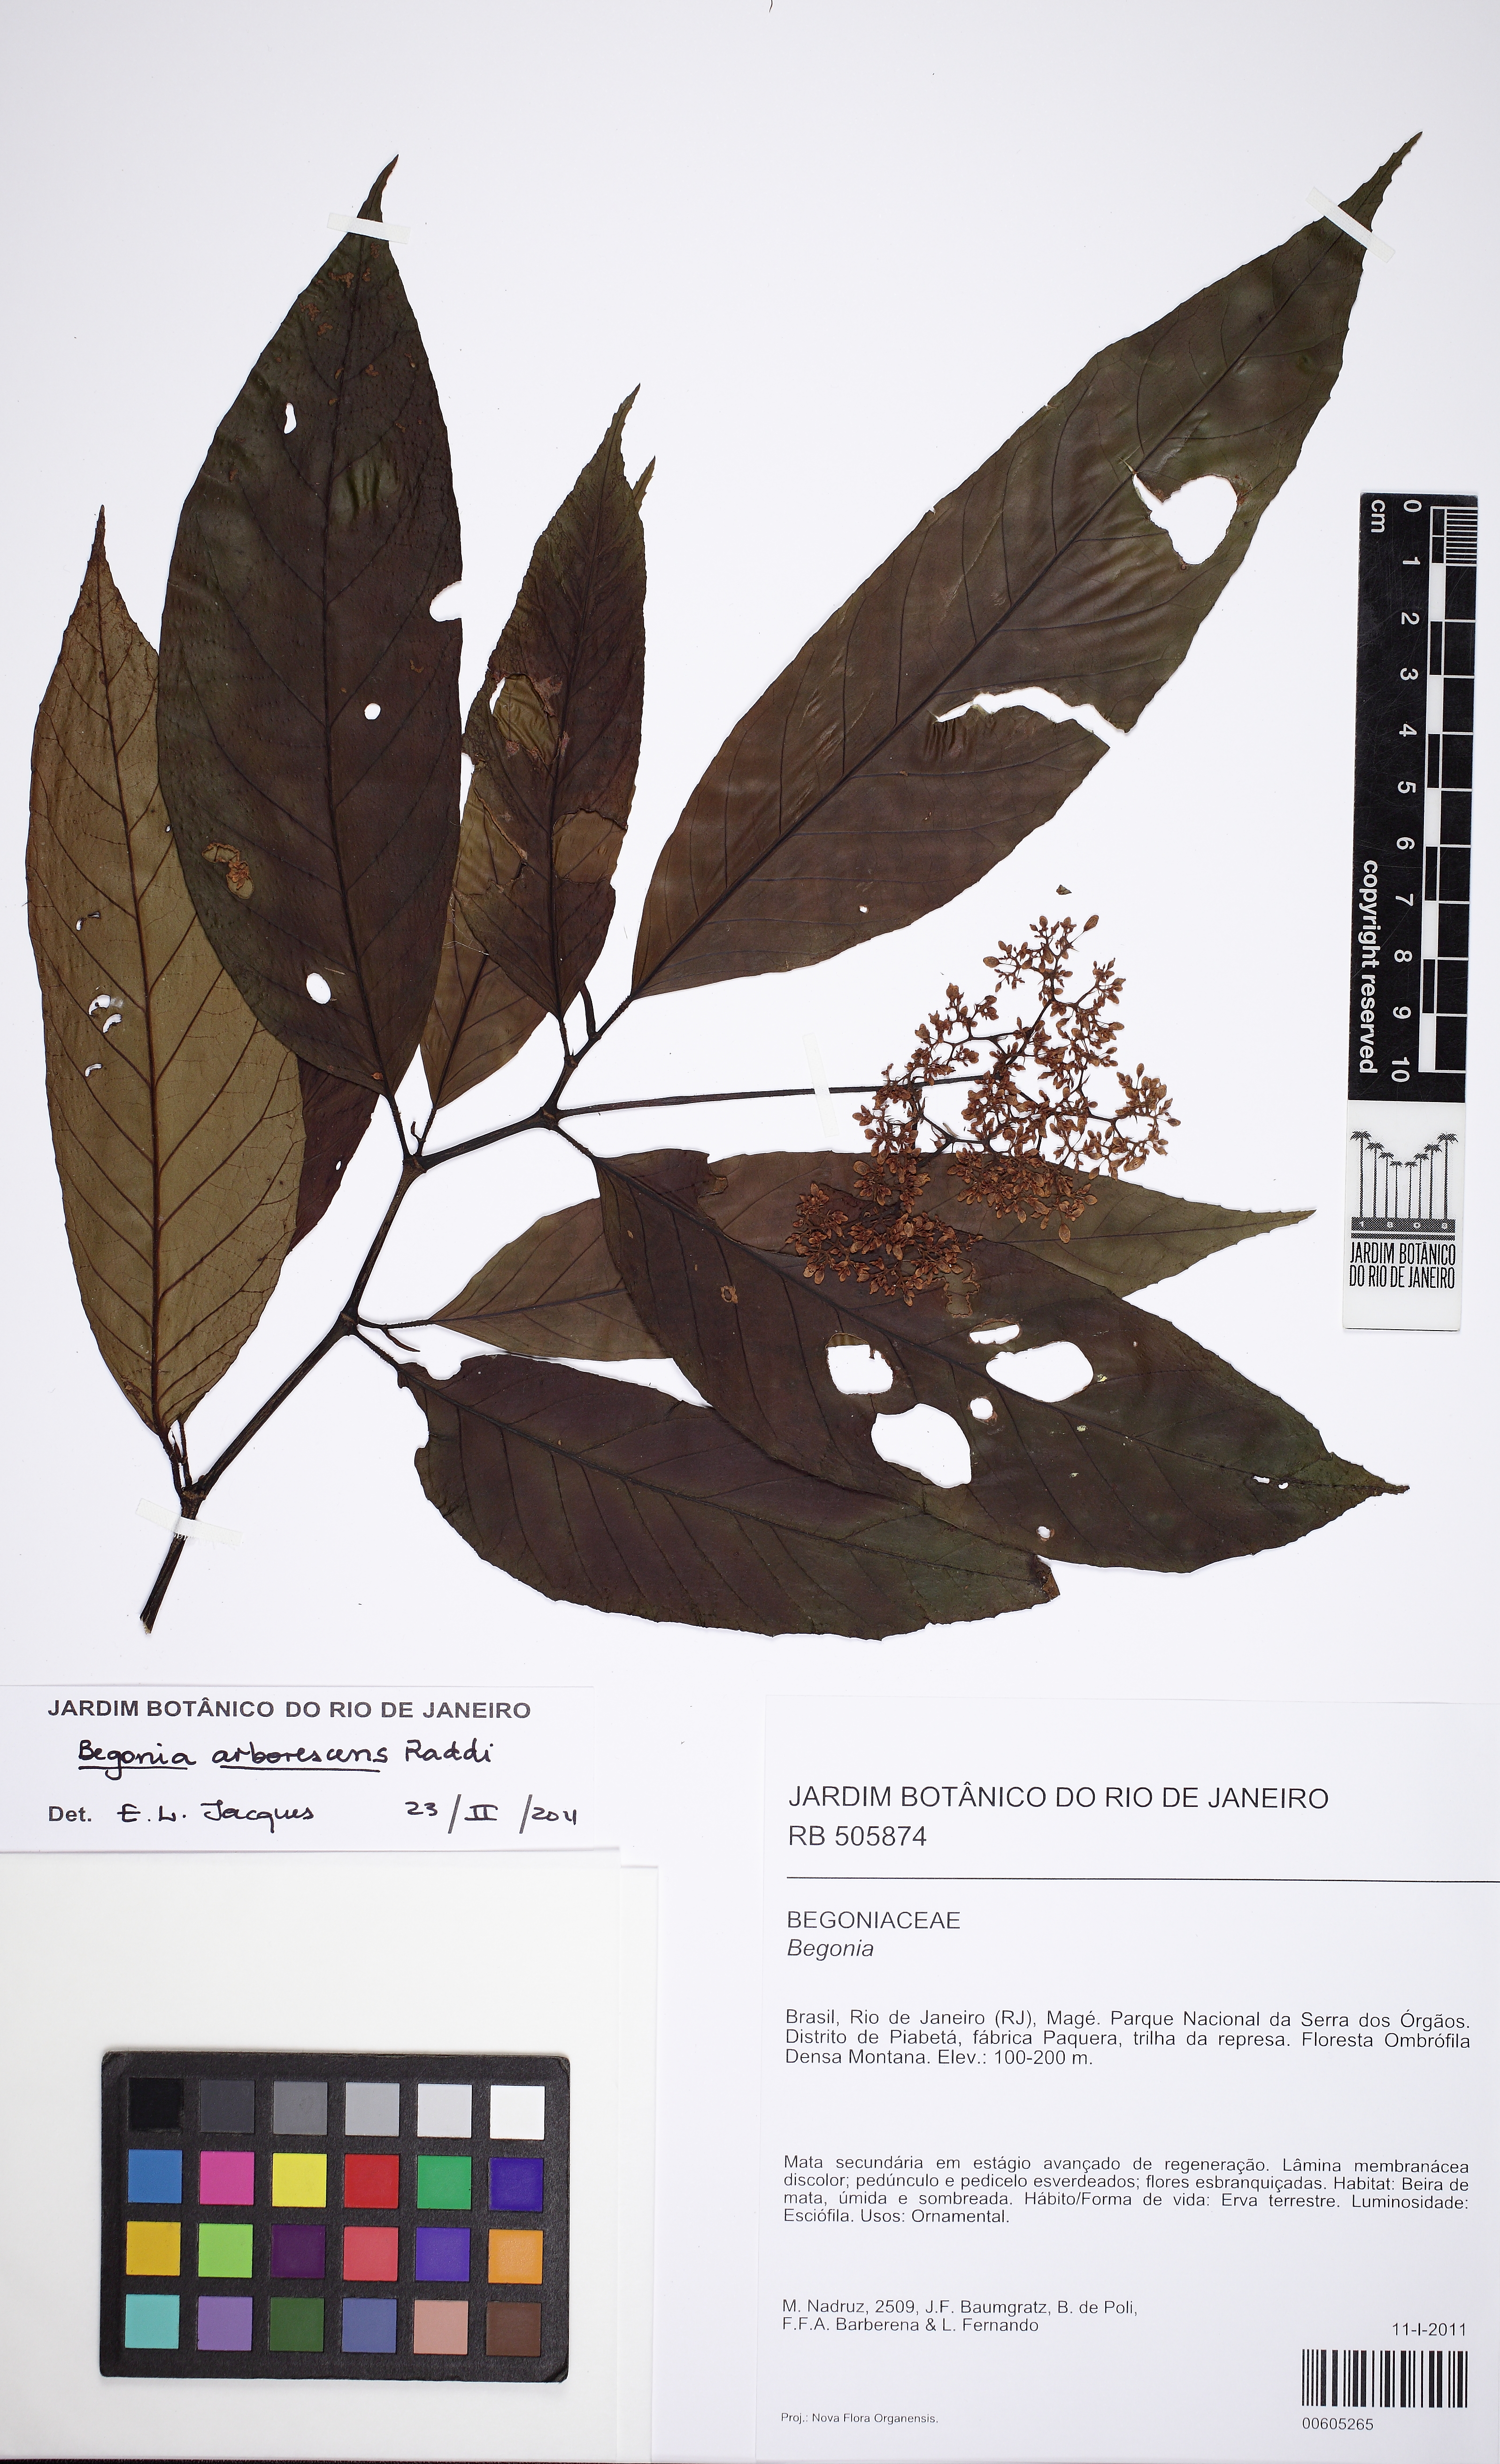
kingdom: Plantae
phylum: Tracheophyta
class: Magnoliopsida
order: Cucurbitales
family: Begoniaceae
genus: Begonia
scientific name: Begonia arborescens
